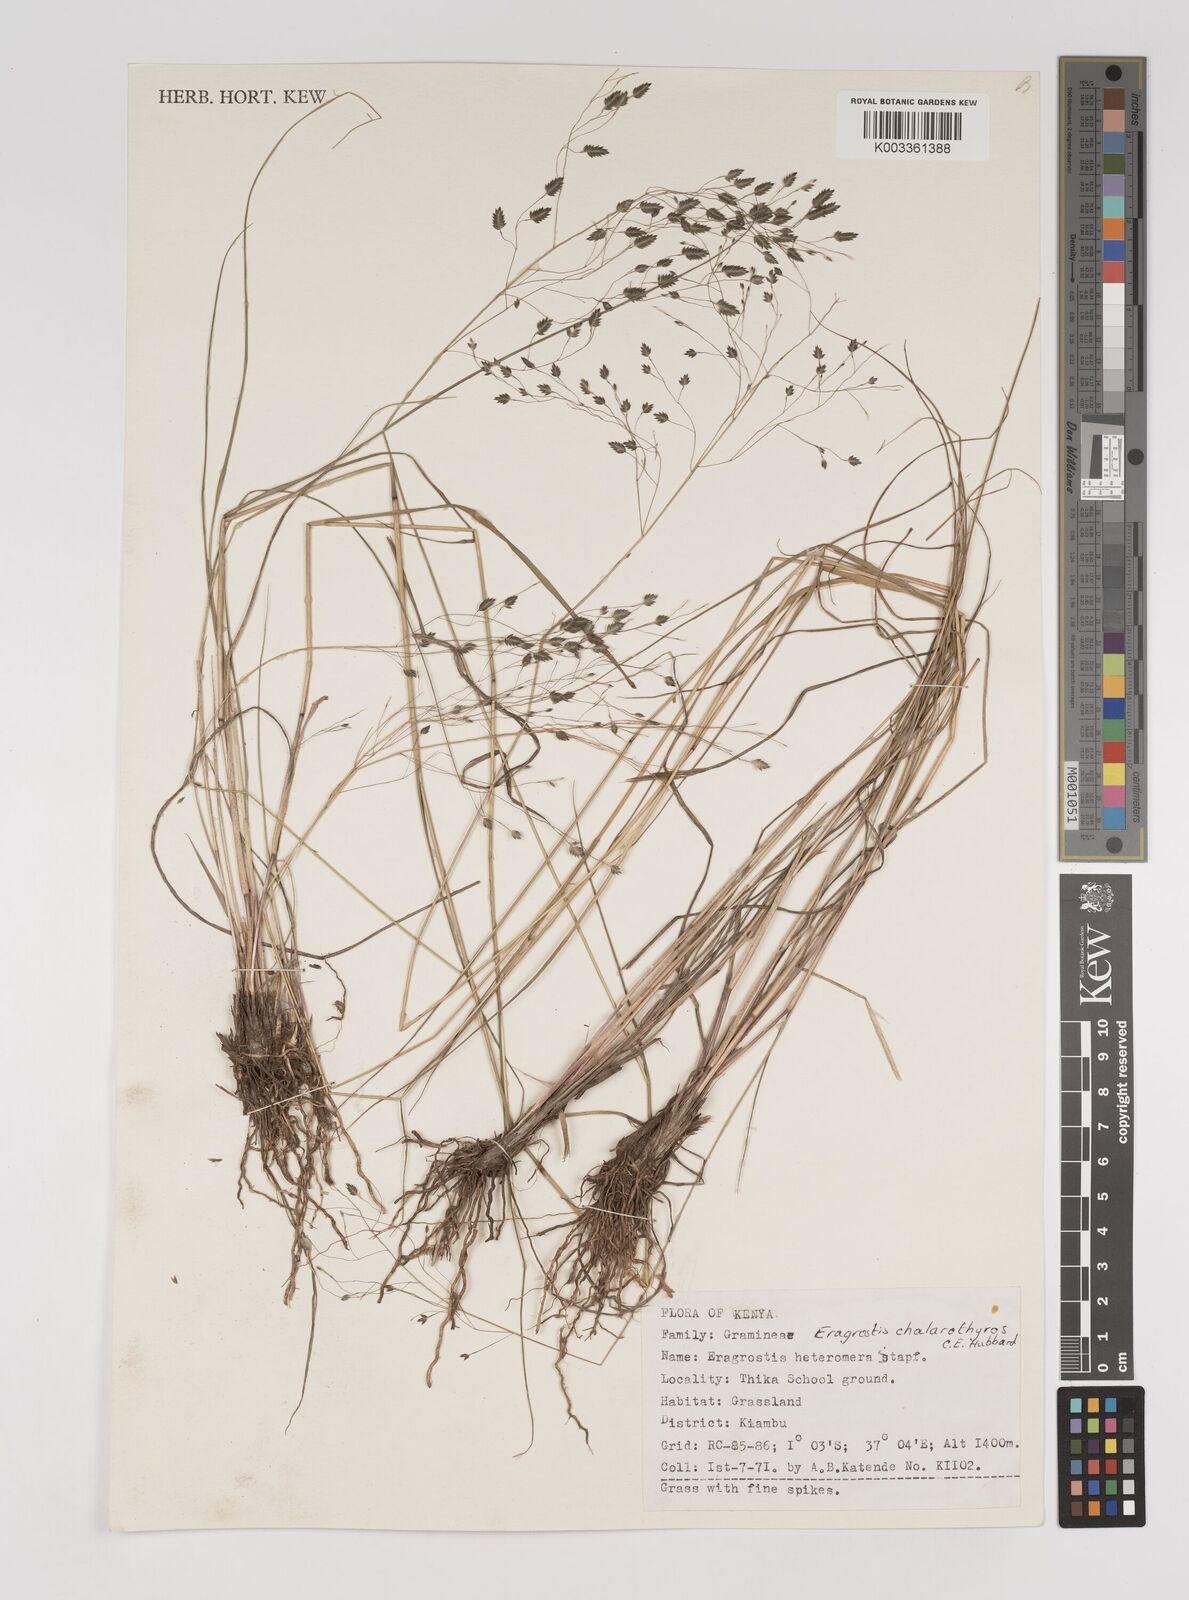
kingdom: Plantae
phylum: Tracheophyta
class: Liliopsida
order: Poales
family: Poaceae
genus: Eragrostis
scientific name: Eragrostis chalarothyrsos
